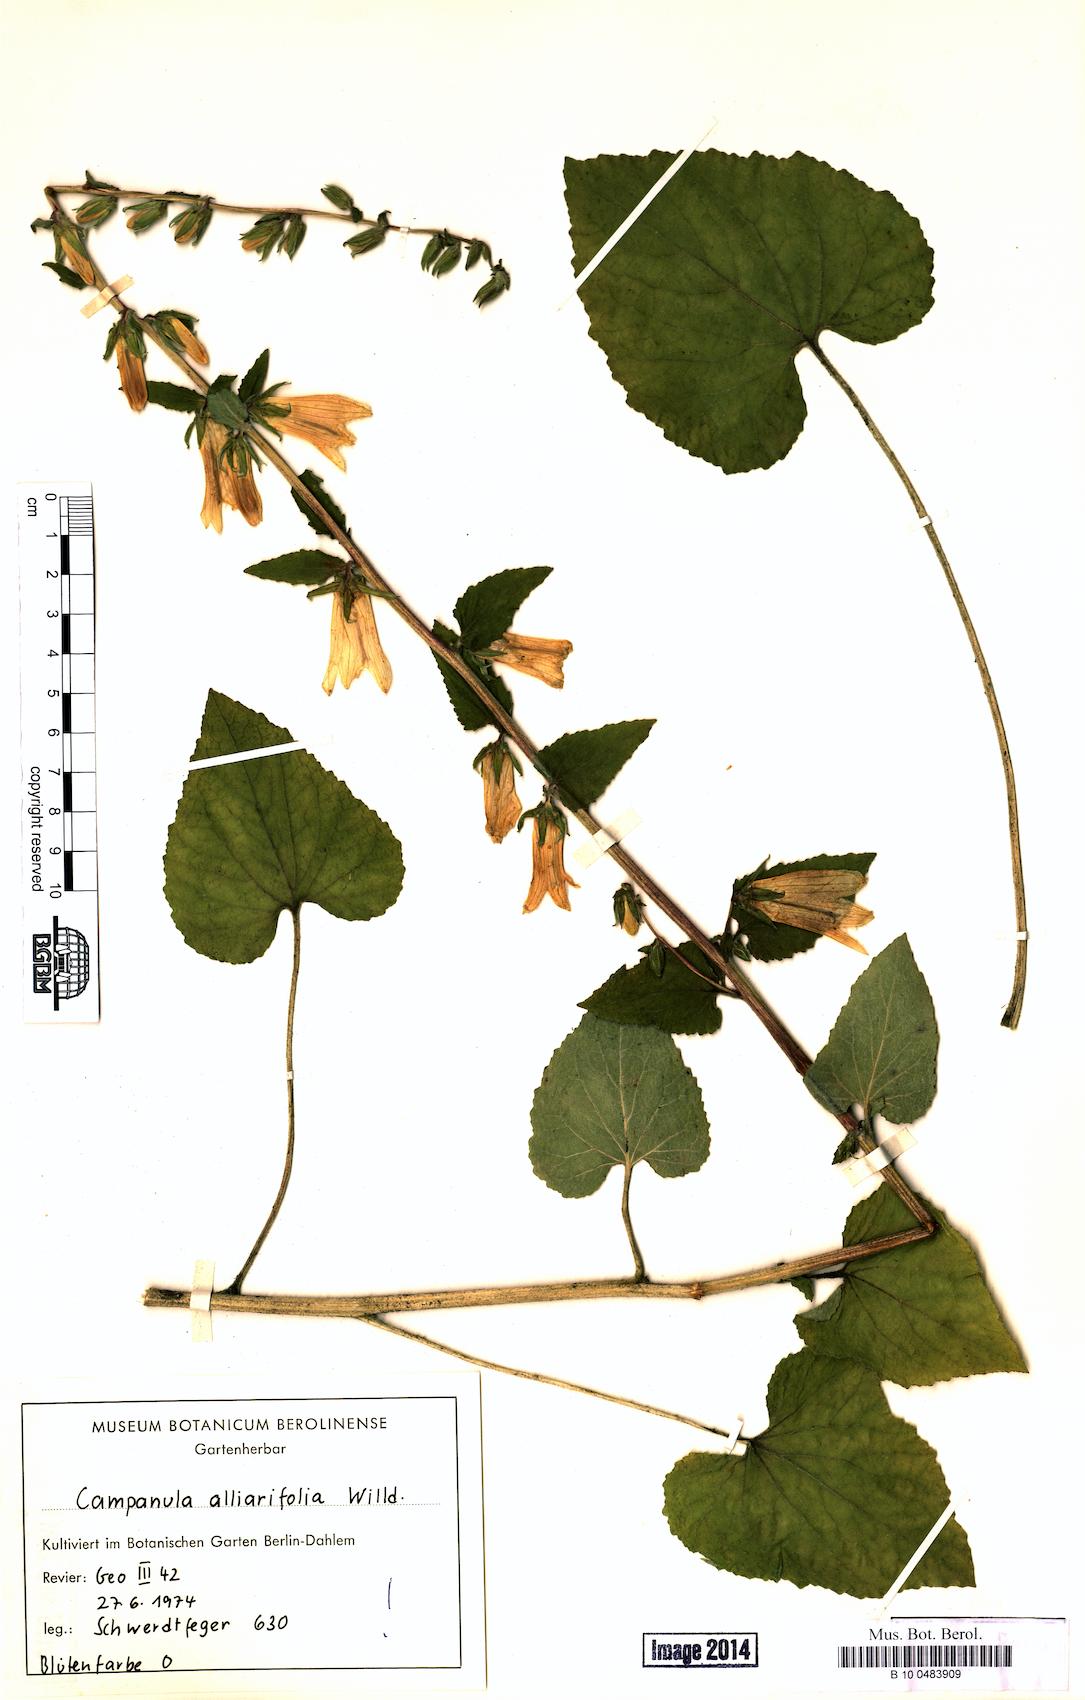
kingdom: Plantae
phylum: Tracheophyta
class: Magnoliopsida
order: Asterales
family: Campanulaceae
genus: Campanula
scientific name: Campanula alliariifolia
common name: Cornish bellflower
